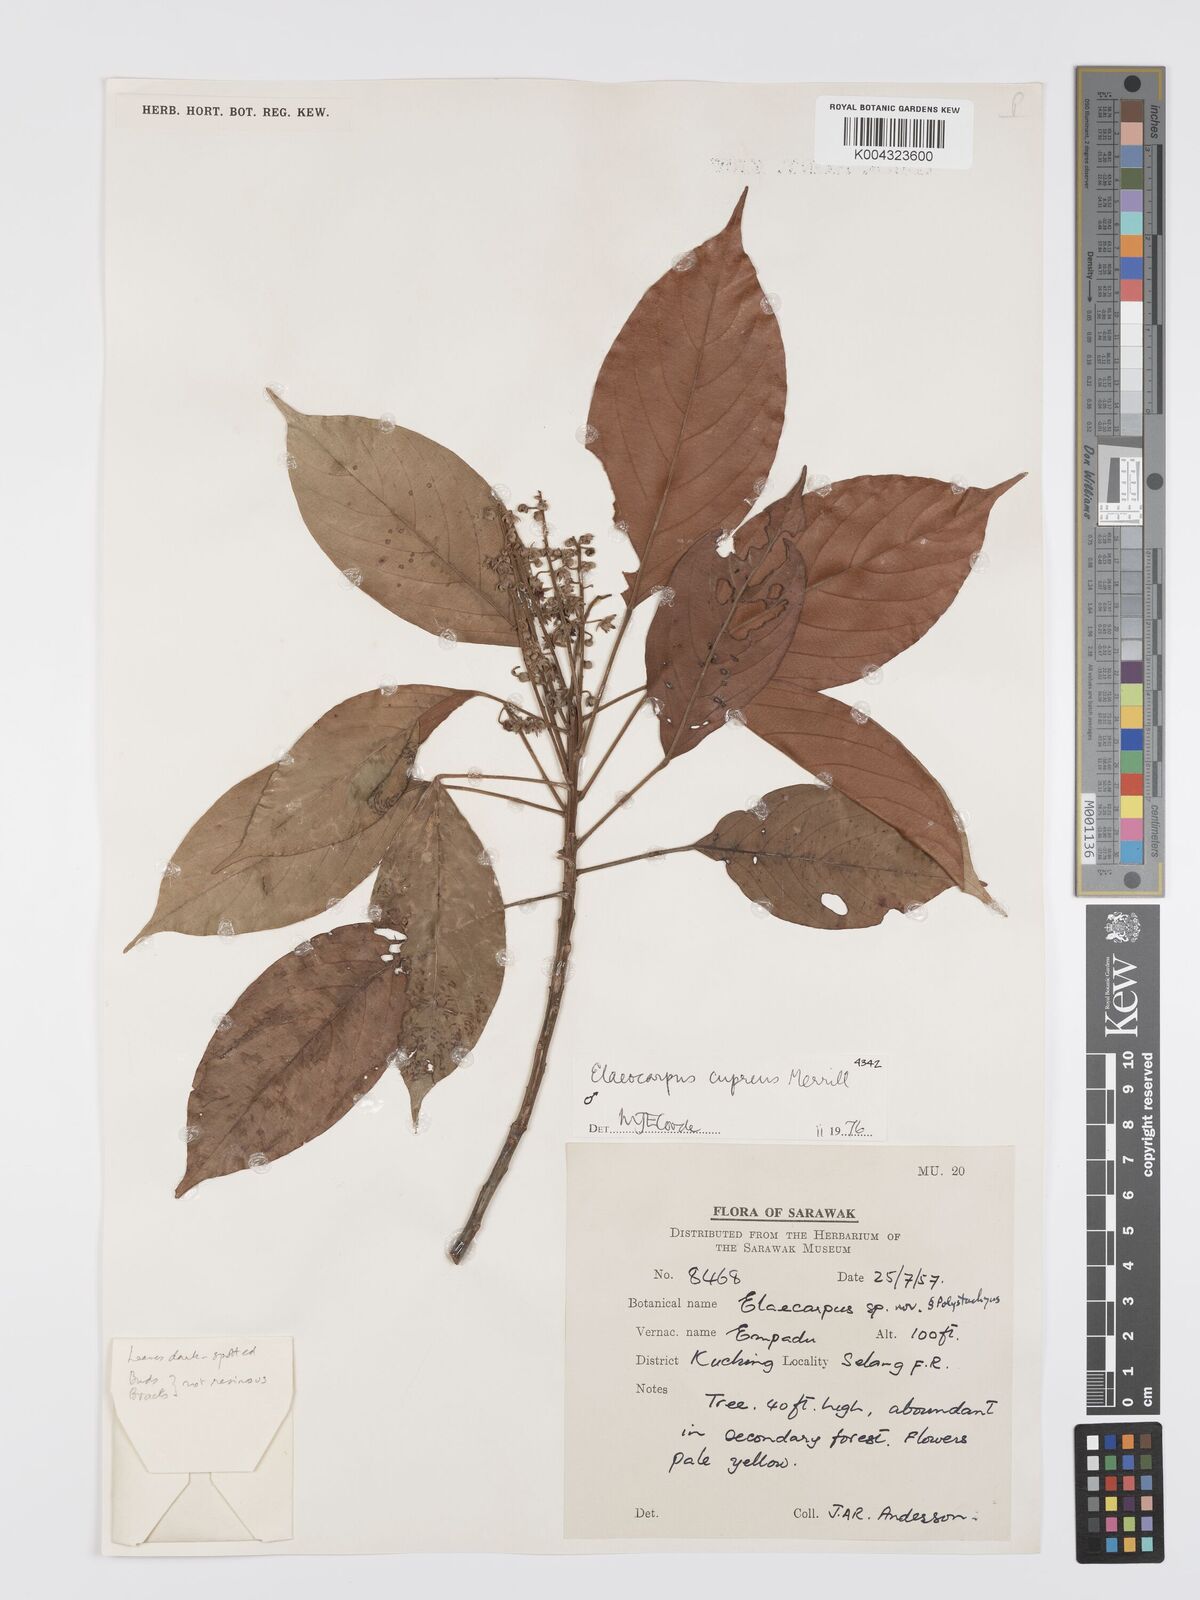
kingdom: Plantae
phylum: Tracheophyta
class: Magnoliopsida
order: Oxalidales
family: Elaeocarpaceae
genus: Elaeocarpus
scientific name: Elaeocarpus cupreus
